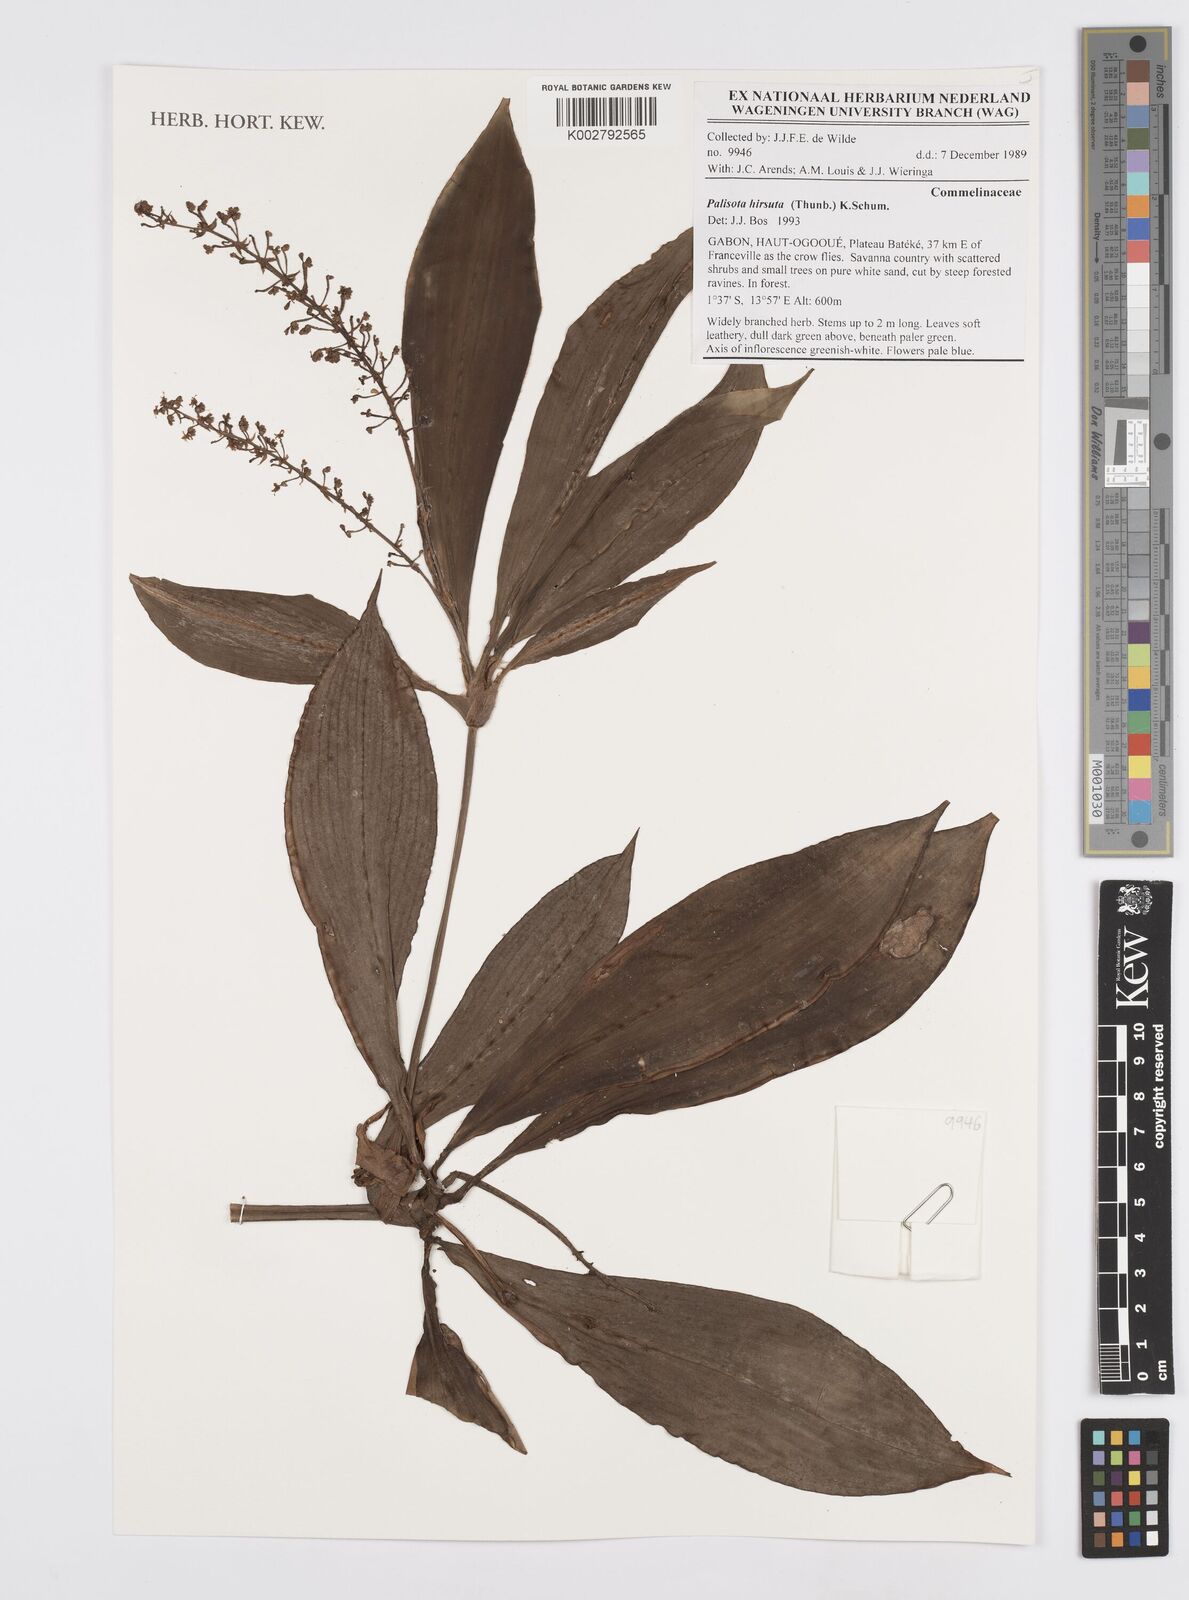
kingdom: Plantae
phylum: Tracheophyta
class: Liliopsida
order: Commelinales
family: Commelinaceae
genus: Palisota
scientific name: Palisota hirsuta
